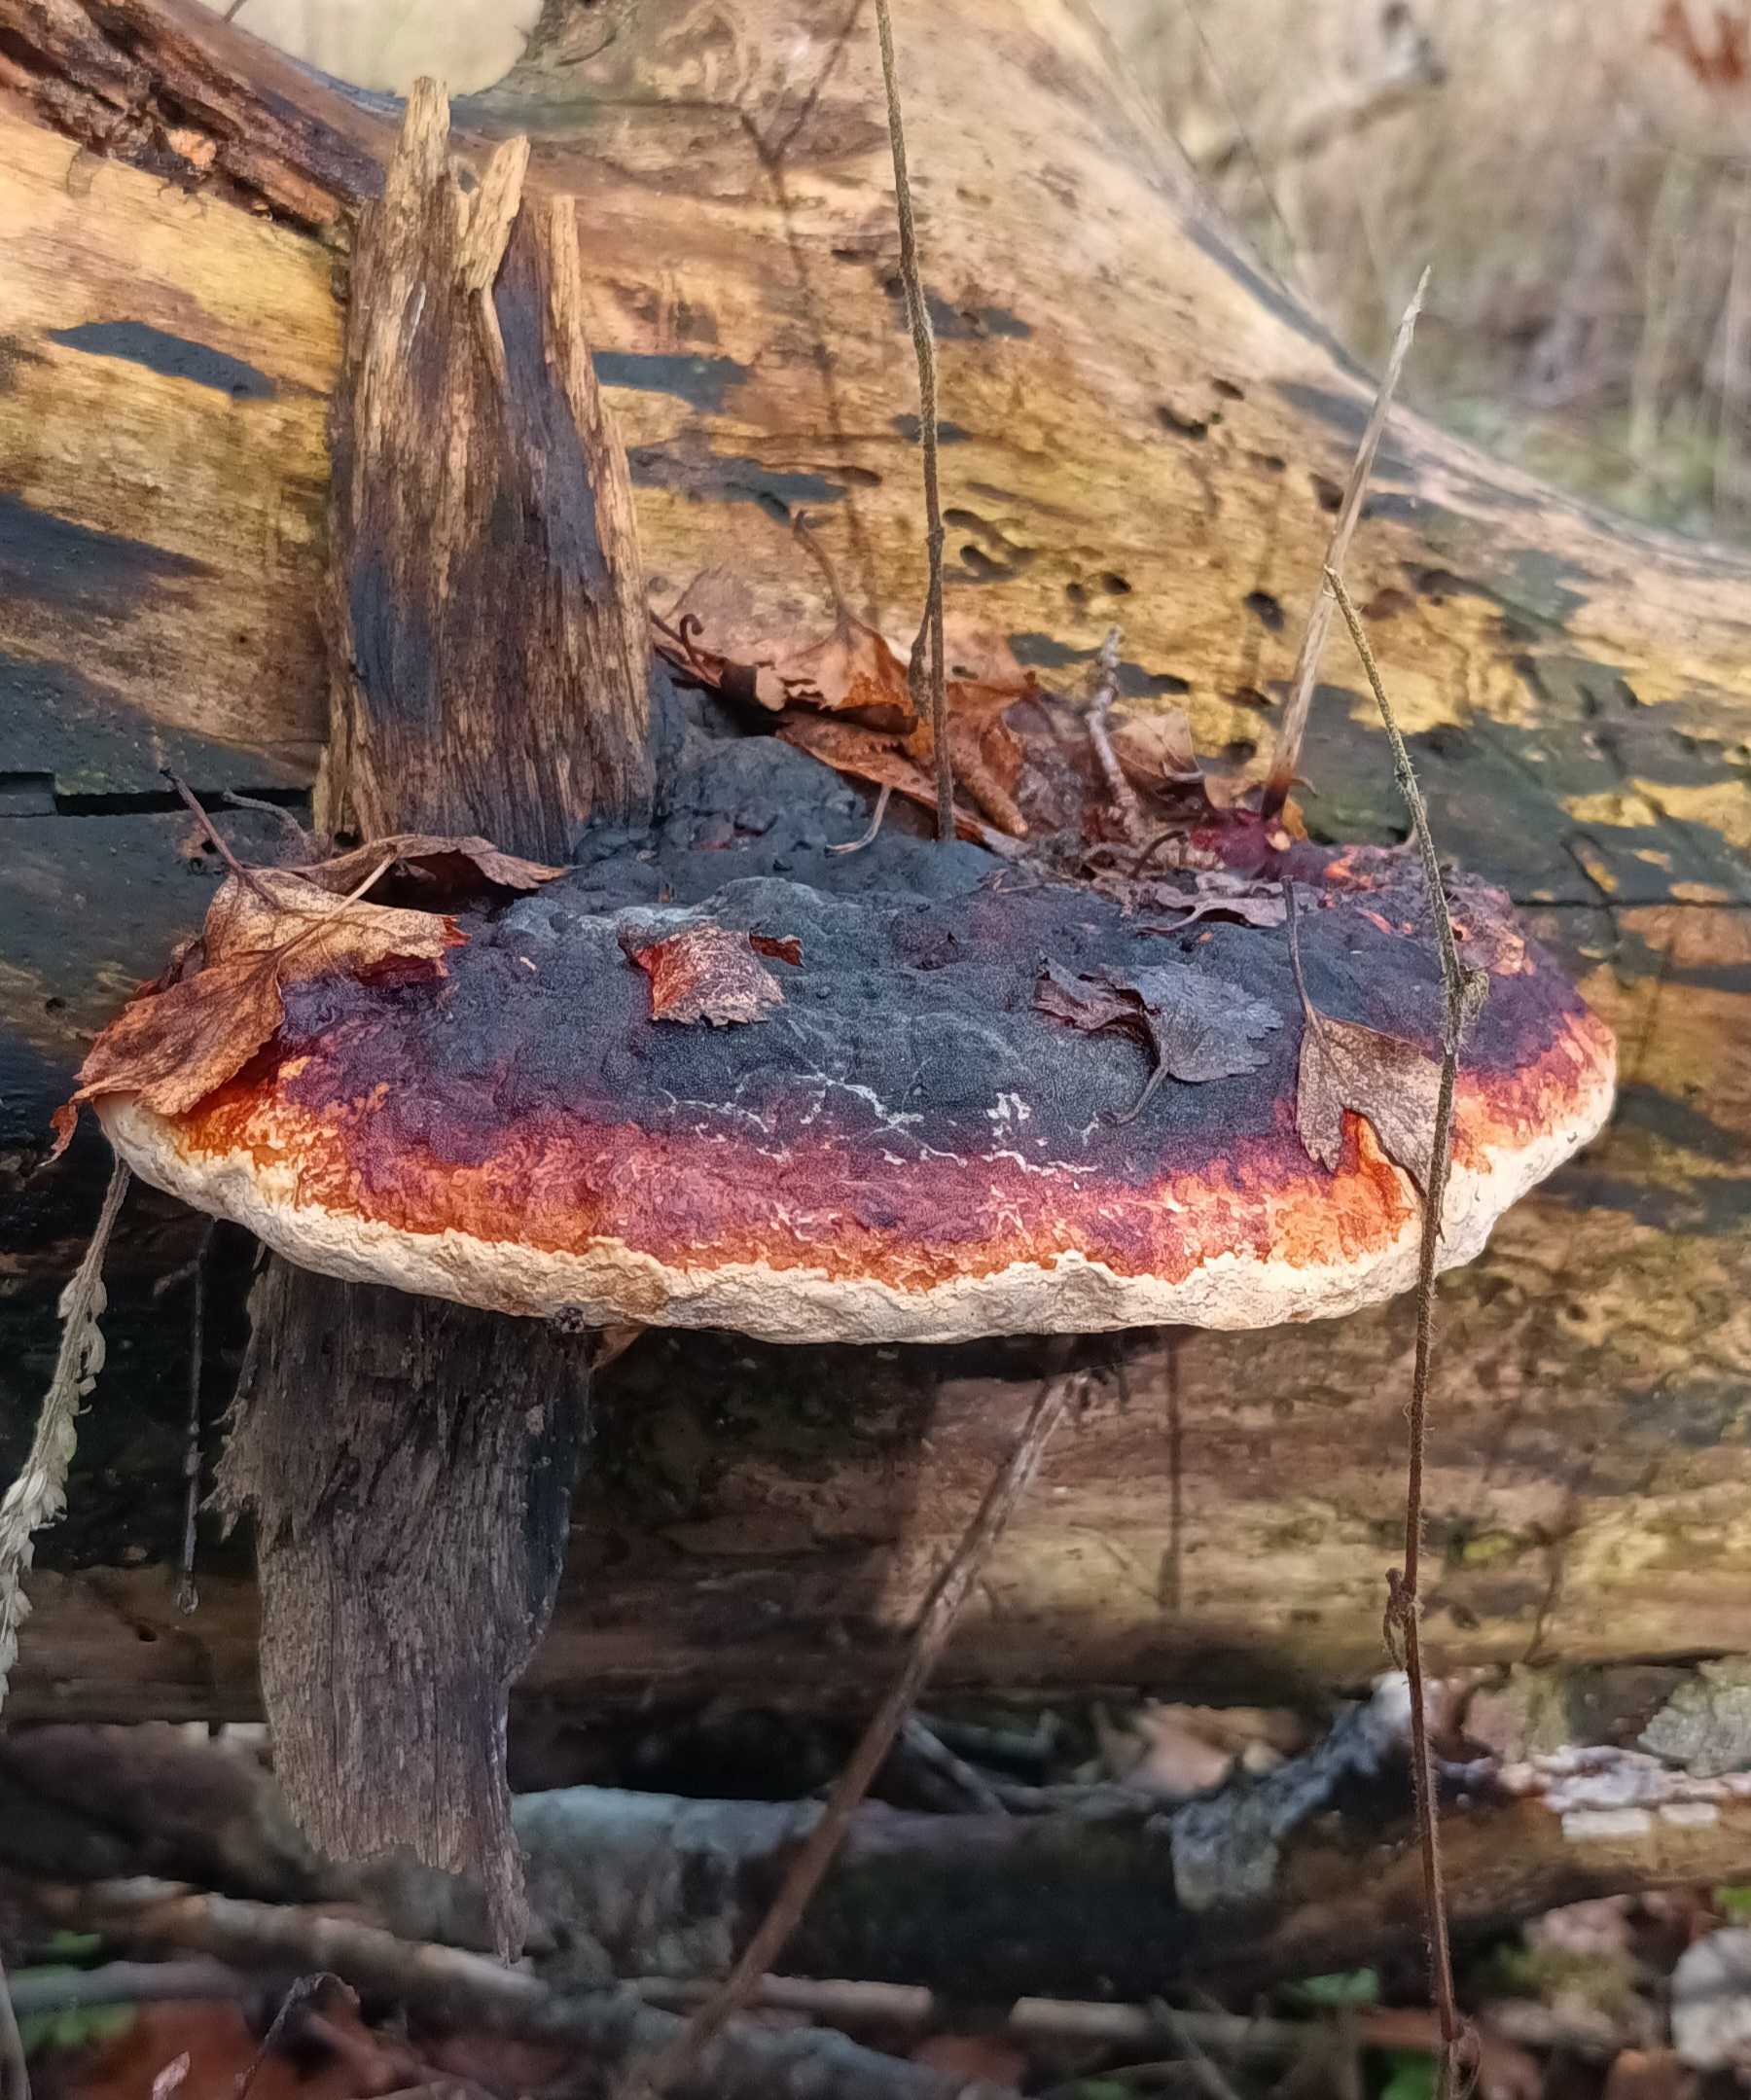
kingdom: Fungi
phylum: Basidiomycota
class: Agaricomycetes
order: Polyporales
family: Fomitopsidaceae
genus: Fomitopsis
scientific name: Fomitopsis pinicola
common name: Randbæltet hovporesvamp
